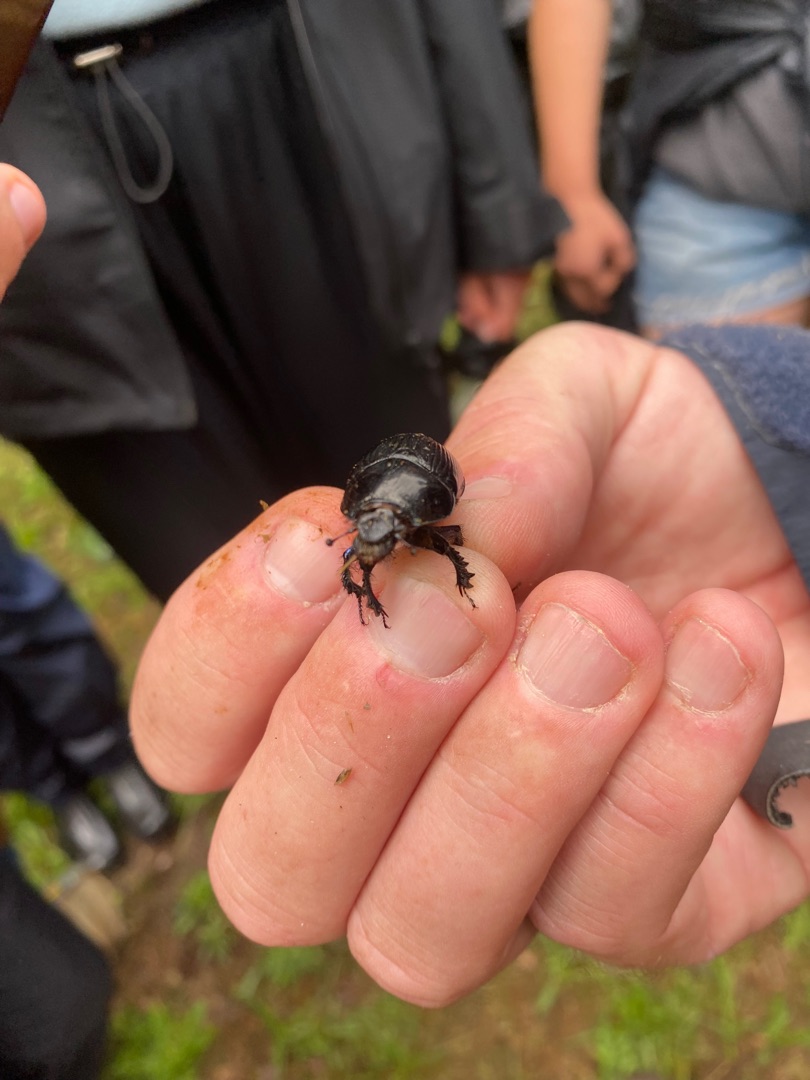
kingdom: Animalia
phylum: Arthropoda
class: Insecta
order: Coleoptera
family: Geotrupidae
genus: Geotrupes
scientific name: Geotrupes spiniger
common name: Markskarnbasse
